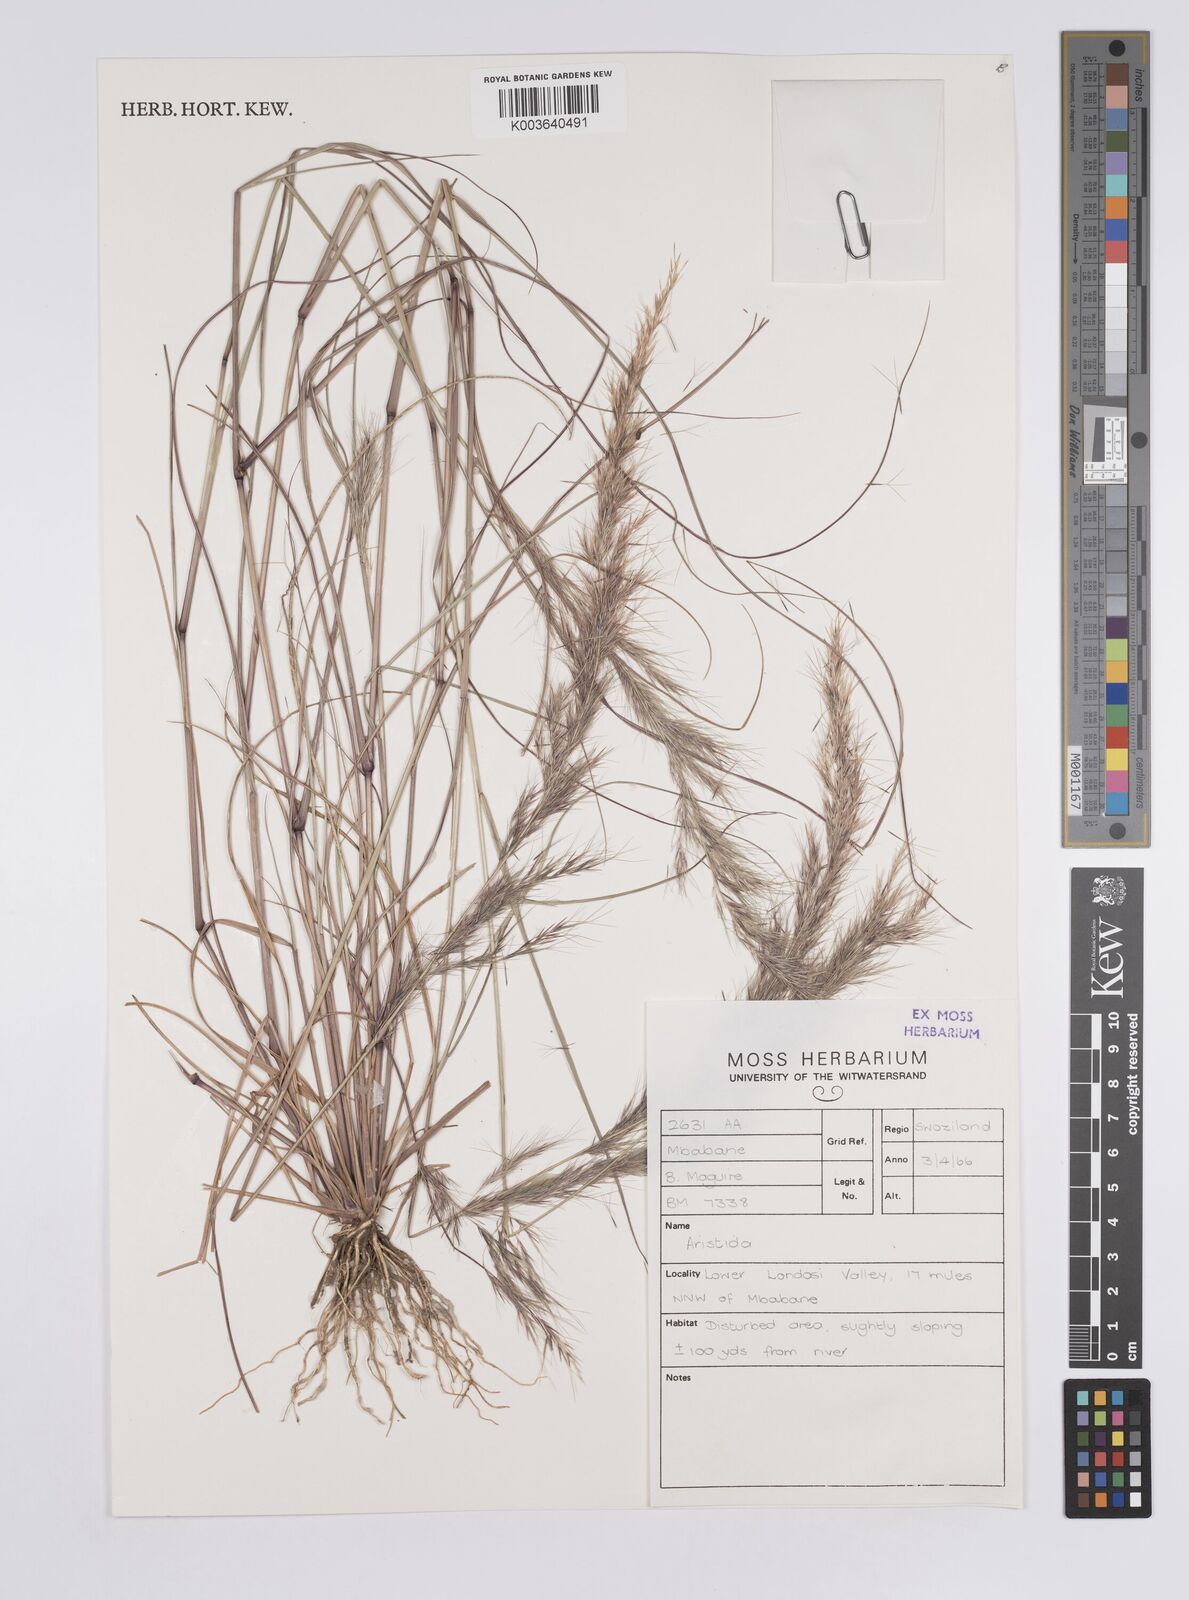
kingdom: Plantae
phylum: Tracheophyta
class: Liliopsida
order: Poales
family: Poaceae
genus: Aristida
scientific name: Aristida
